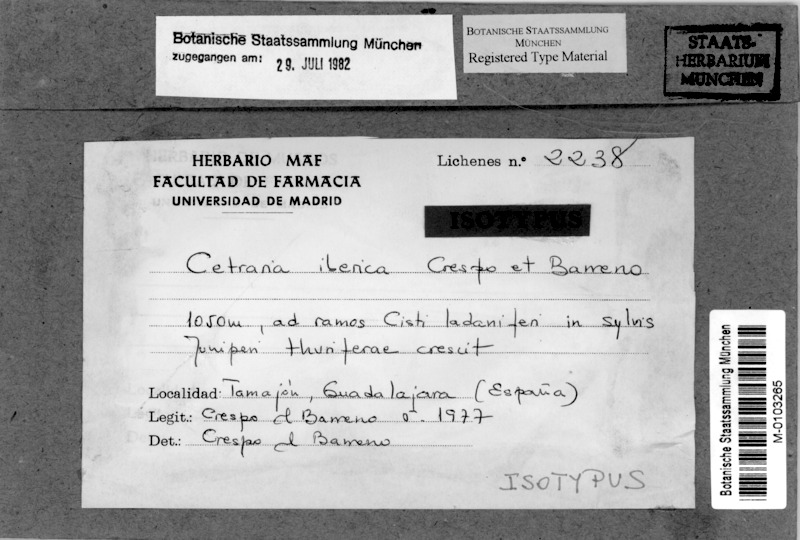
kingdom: Fungi
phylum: Ascomycota
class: Lecanoromycetes
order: Lecanorales
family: Parmeliaceae
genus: Nephromopsis
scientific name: Nephromopsis iberica
